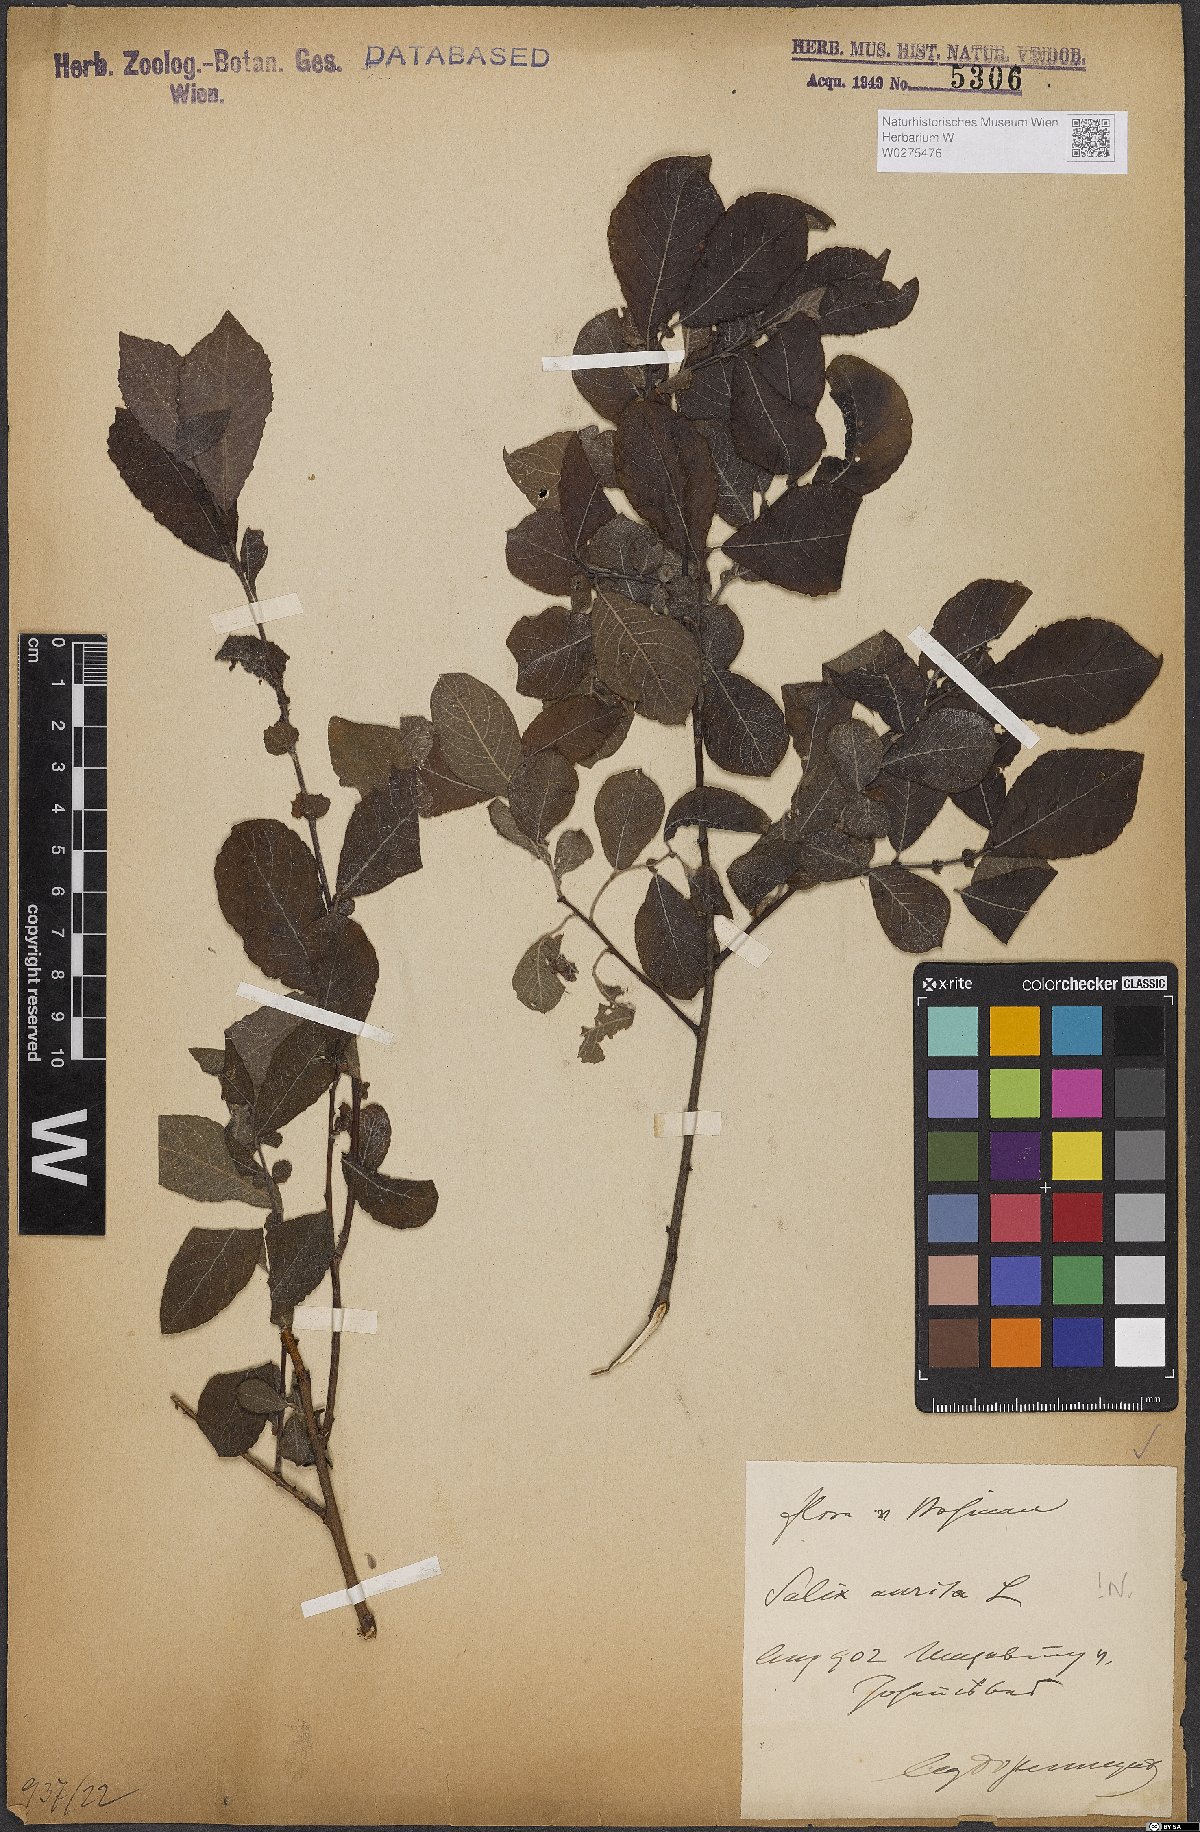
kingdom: Plantae
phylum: Tracheophyta
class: Magnoliopsida
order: Malpighiales
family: Salicaceae
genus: Salix
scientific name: Salix aurita
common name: Eared willow
